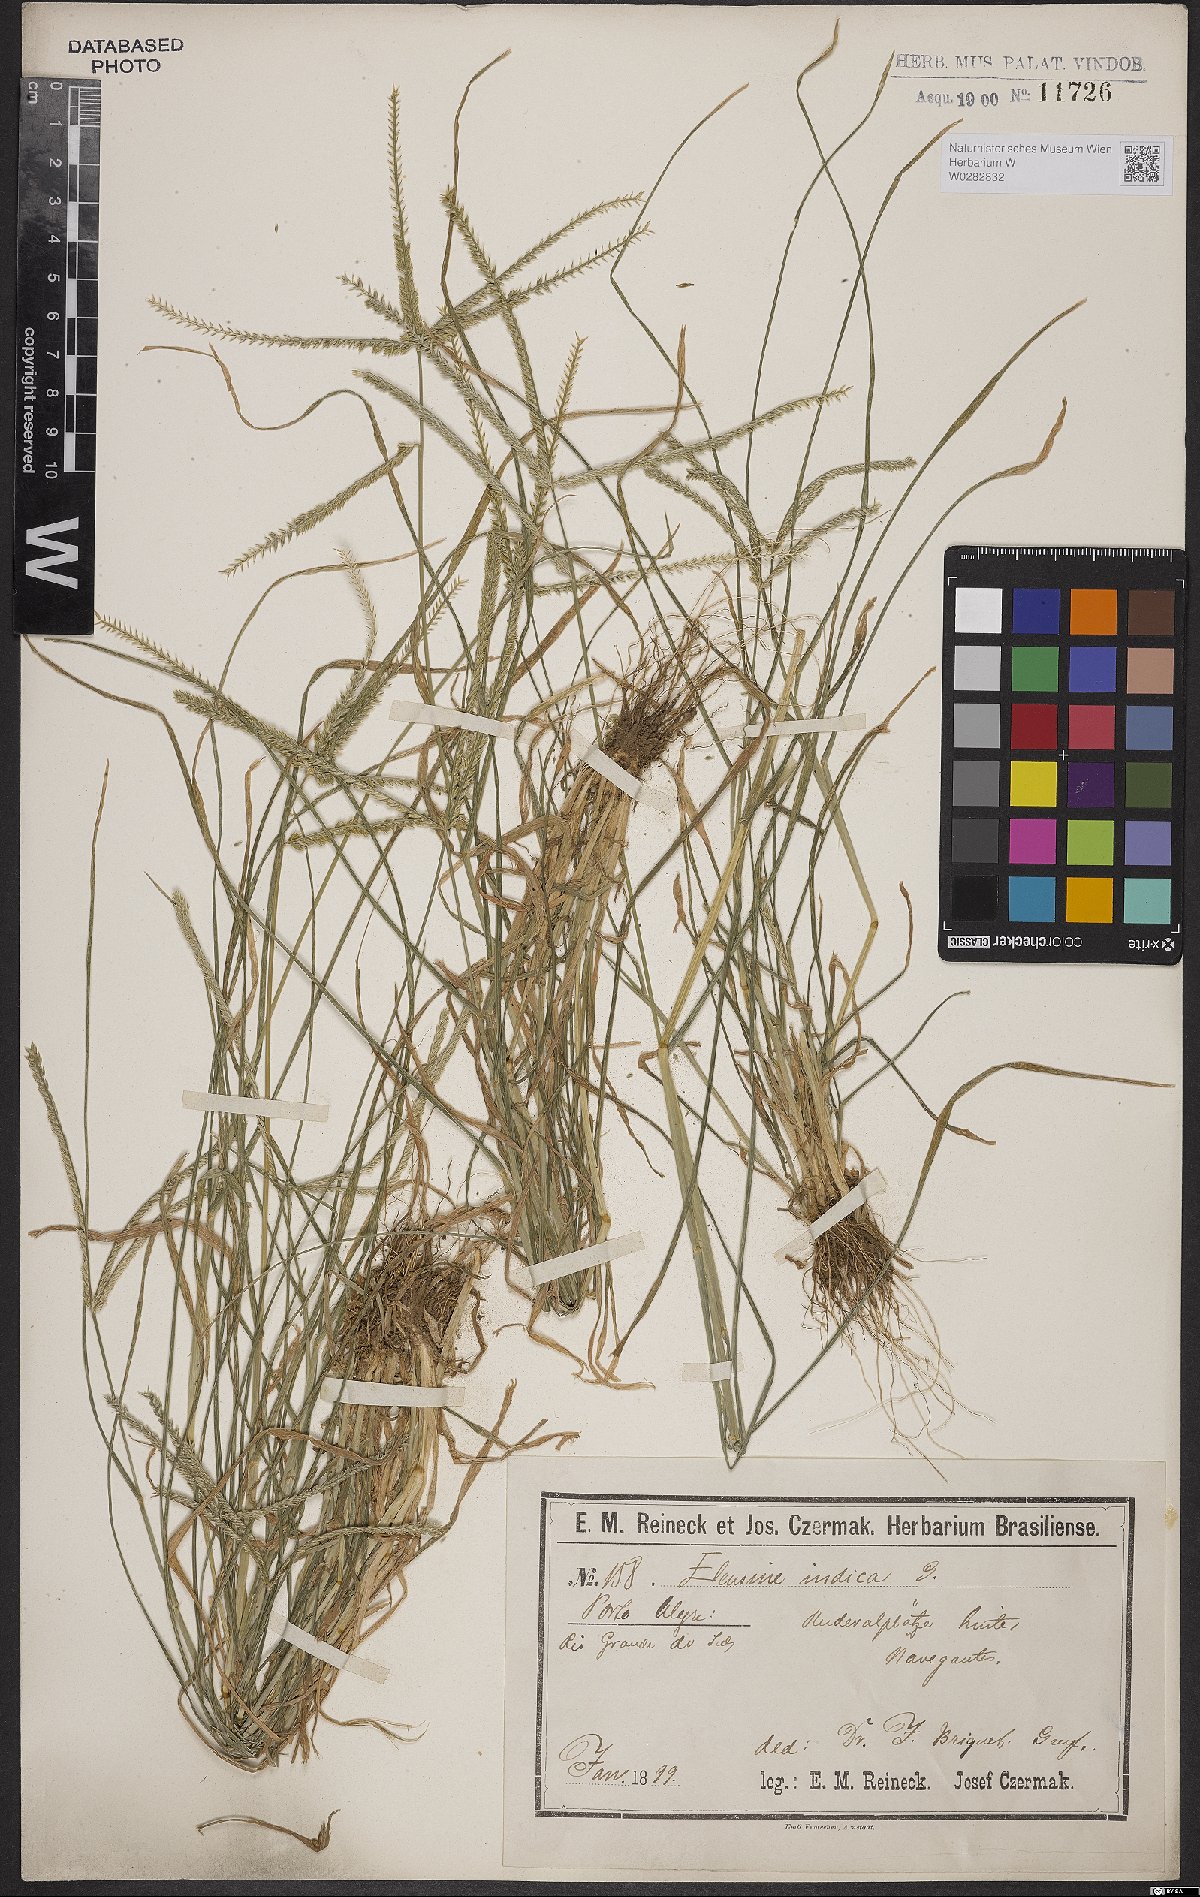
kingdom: Plantae
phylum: Tracheophyta
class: Liliopsida
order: Poales
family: Poaceae
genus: Eleusine
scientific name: Eleusine indica
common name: Yard-grass
